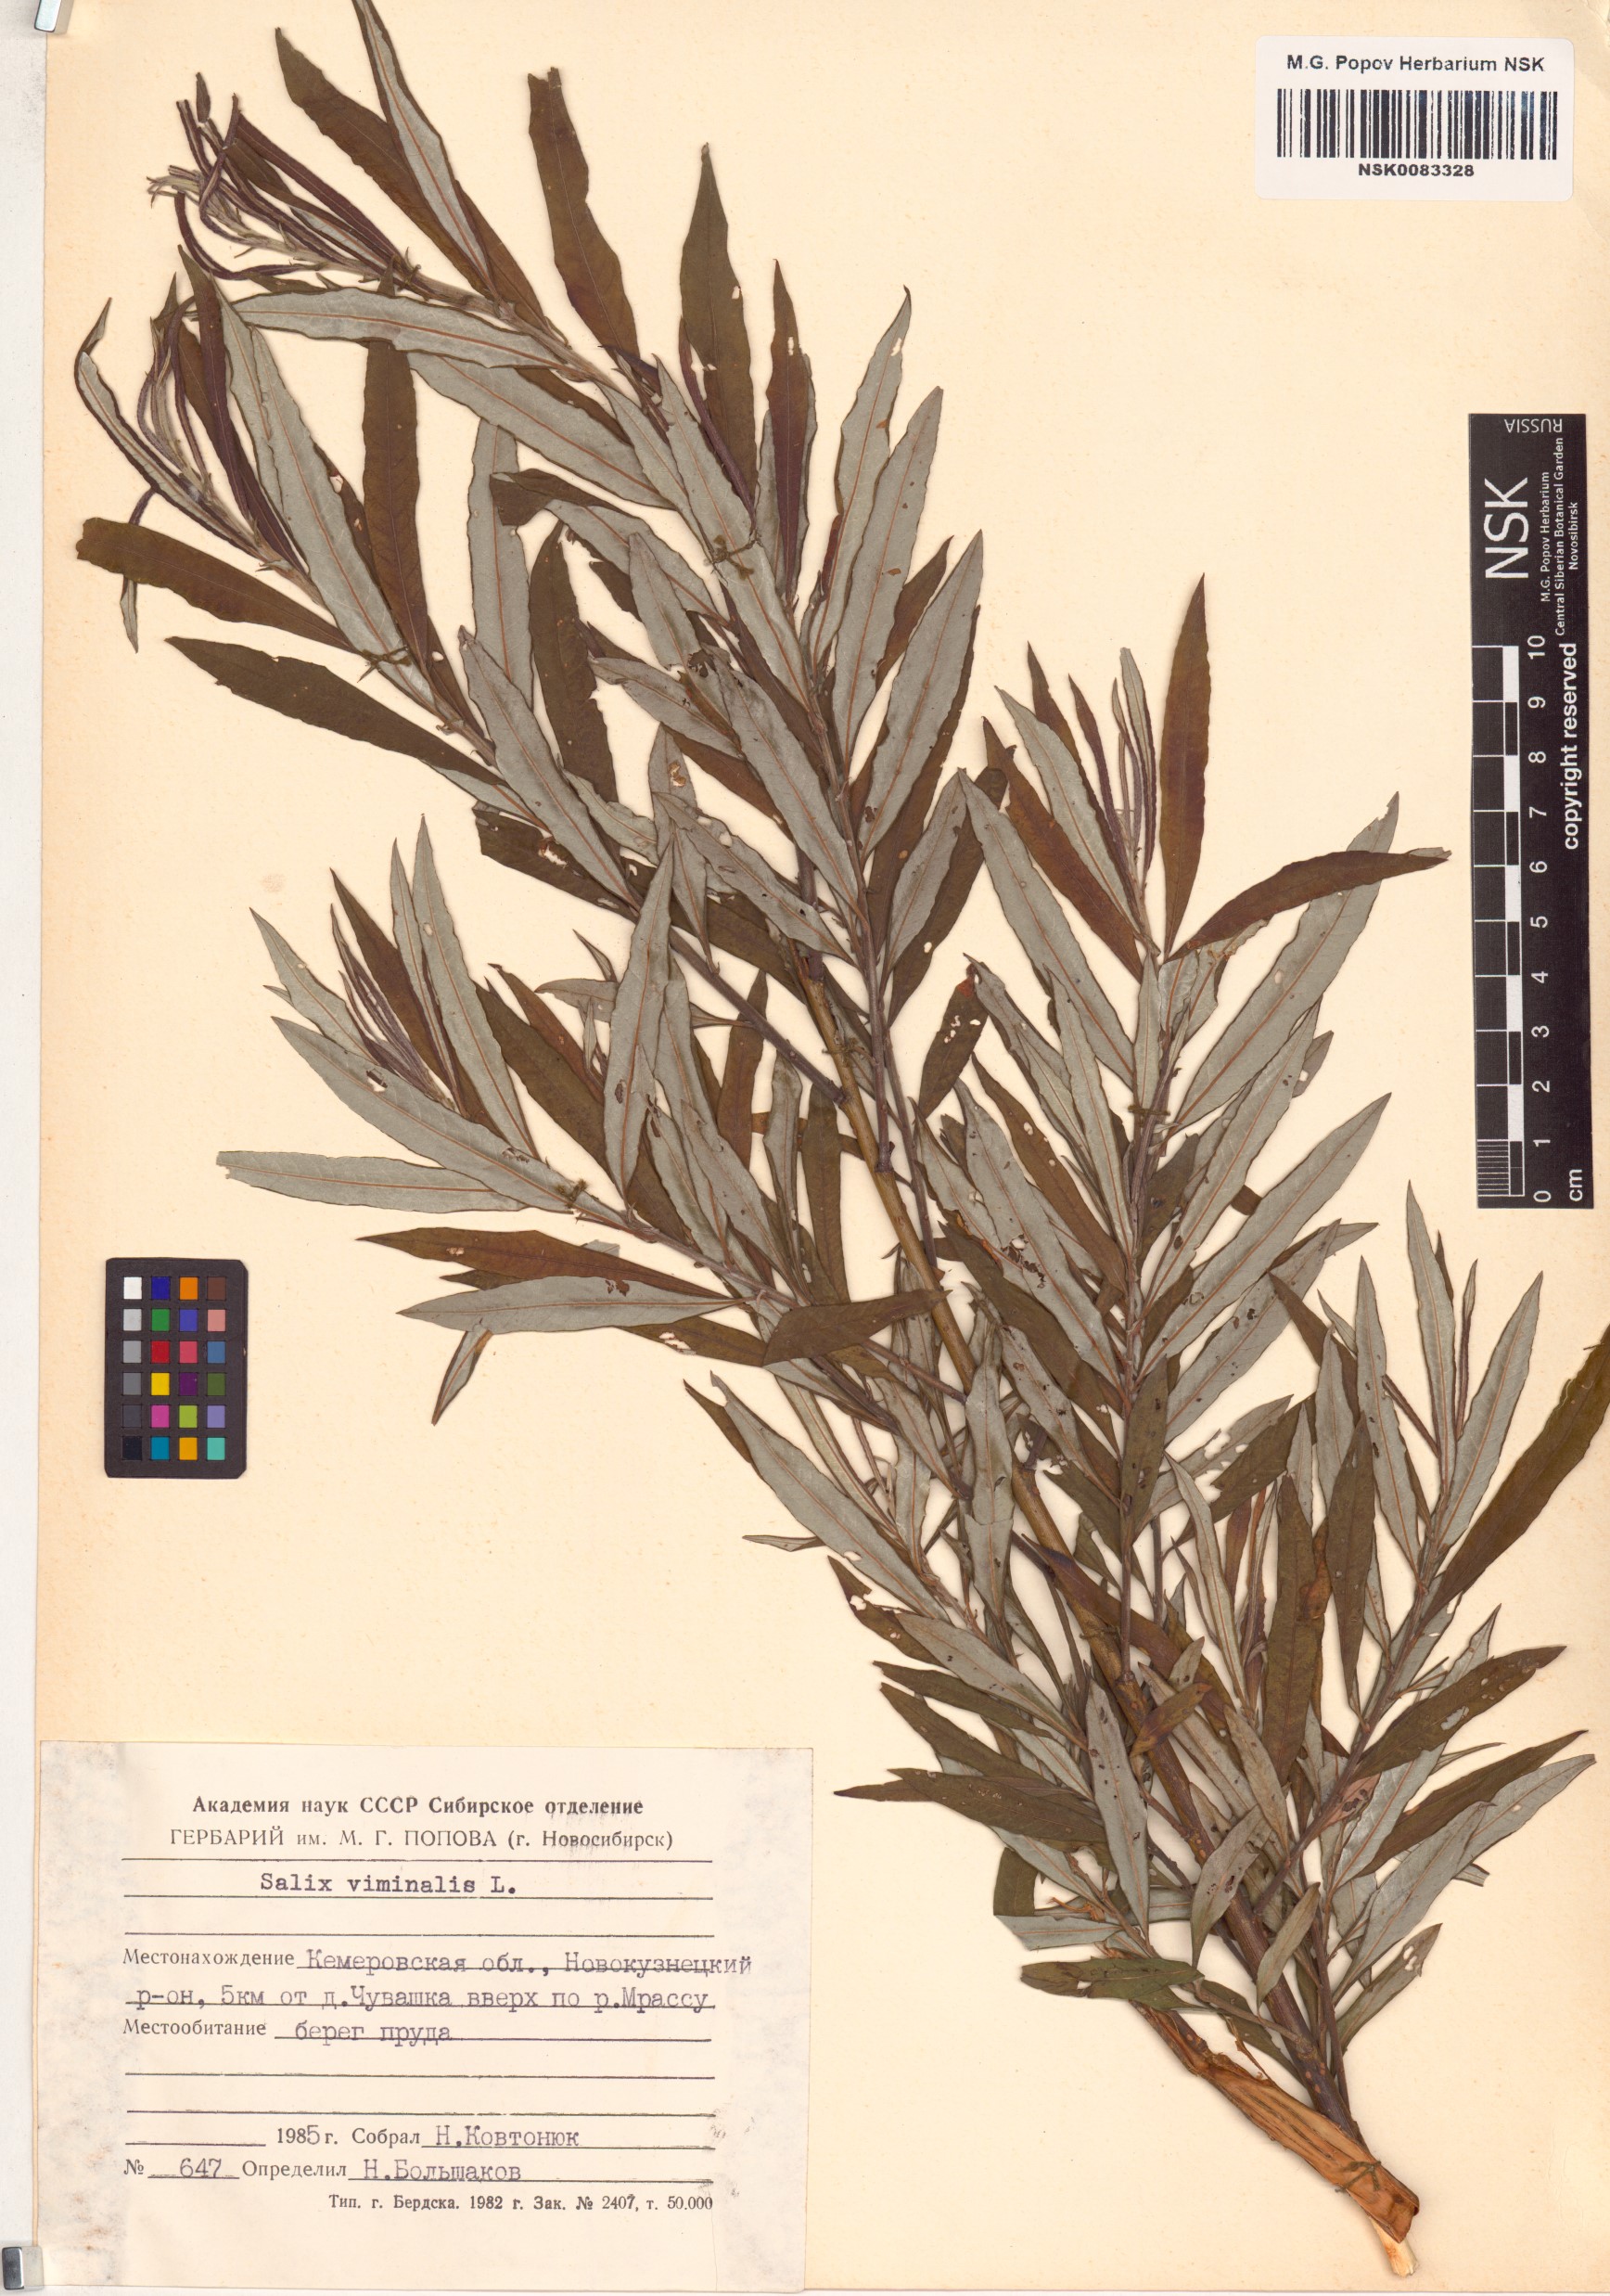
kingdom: Plantae
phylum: Tracheophyta
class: Magnoliopsida
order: Malpighiales
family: Salicaceae
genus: Salix
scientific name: Salix viminalis
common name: Osier
